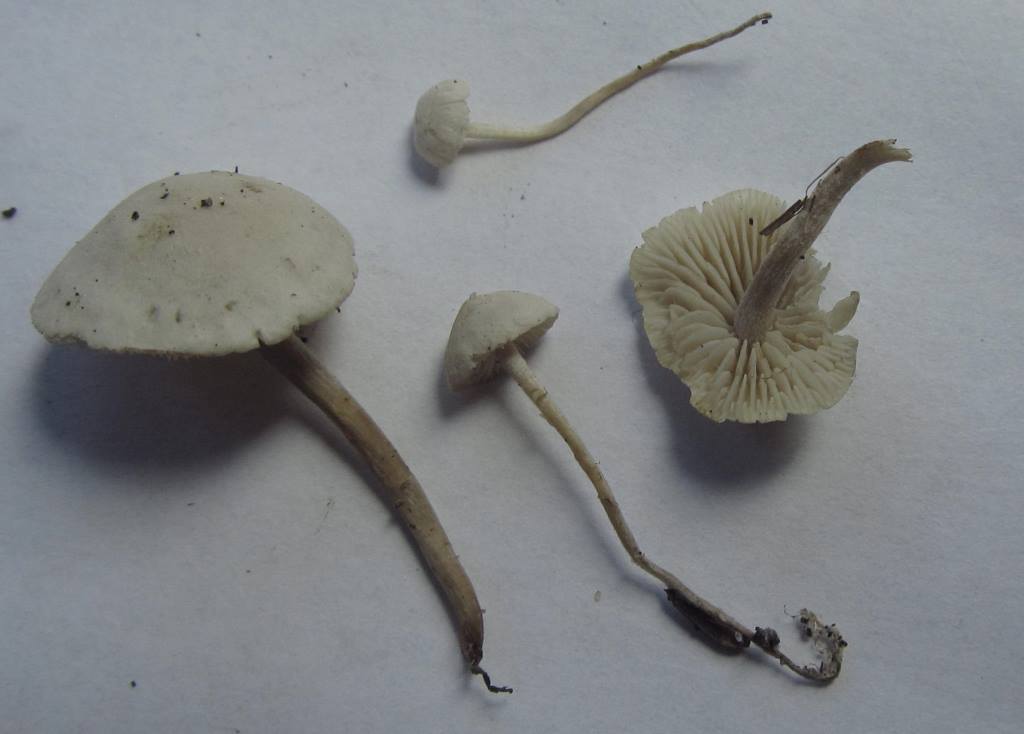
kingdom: Fungi
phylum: Basidiomycota
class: Agaricomycetes
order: Agaricales
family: Tricholomataceae
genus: Pseudobaeospora
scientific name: Pseudobaeospora paulochroma
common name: hvid røghat
